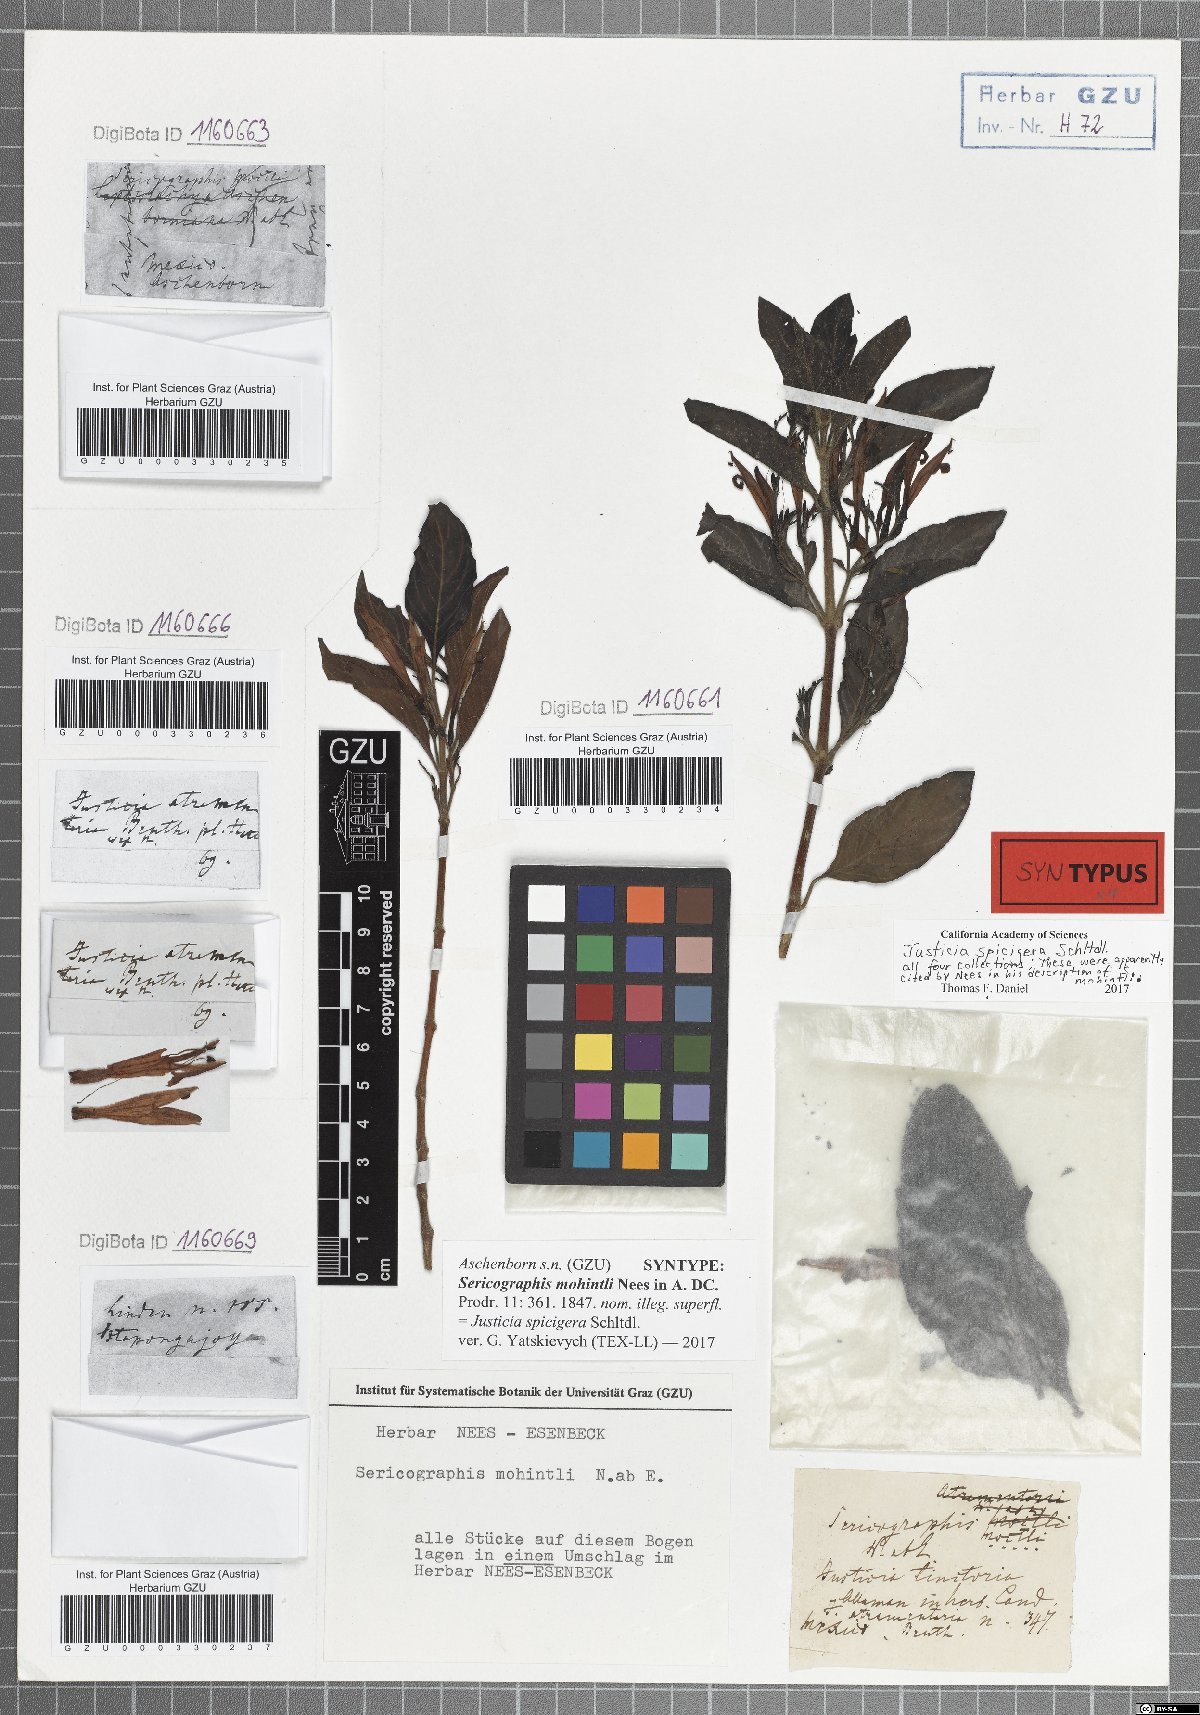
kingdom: Plantae
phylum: Tracheophyta
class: Magnoliopsida
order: Lamiales
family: Acanthaceae
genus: Justicia
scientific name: Justicia spicigera
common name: Mohintli
